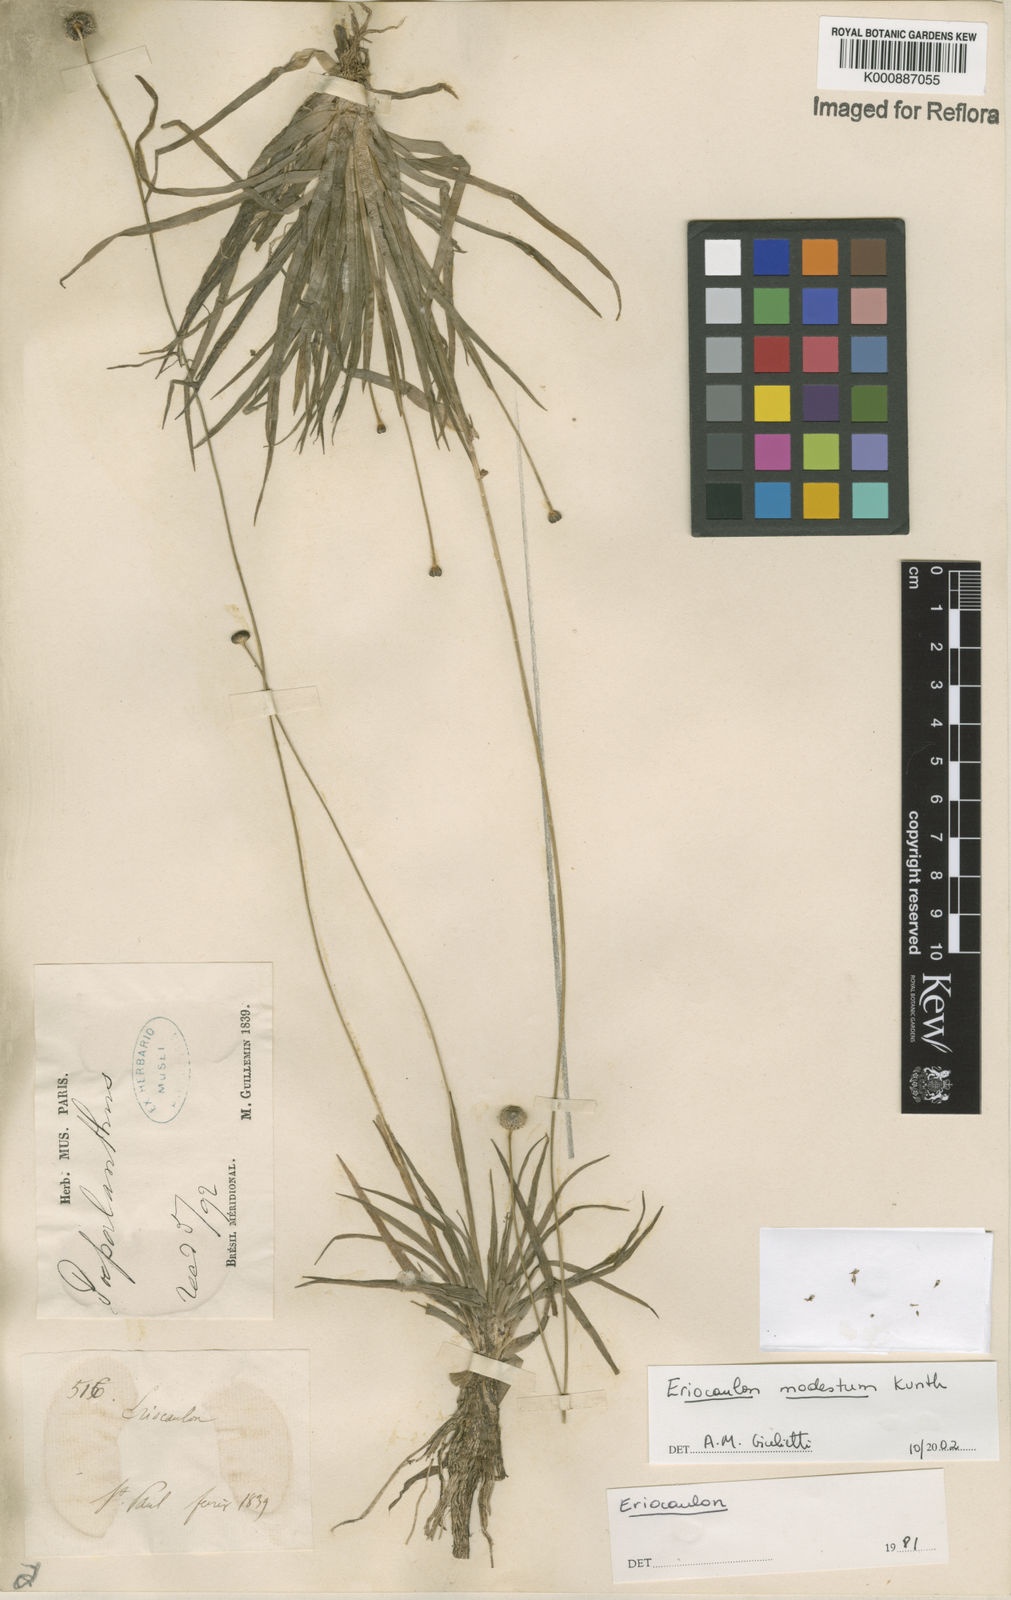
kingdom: Plantae
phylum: Tracheophyta
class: Liliopsida
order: Poales
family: Eriocaulaceae
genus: Eriocaulon
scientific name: Eriocaulon modestum
